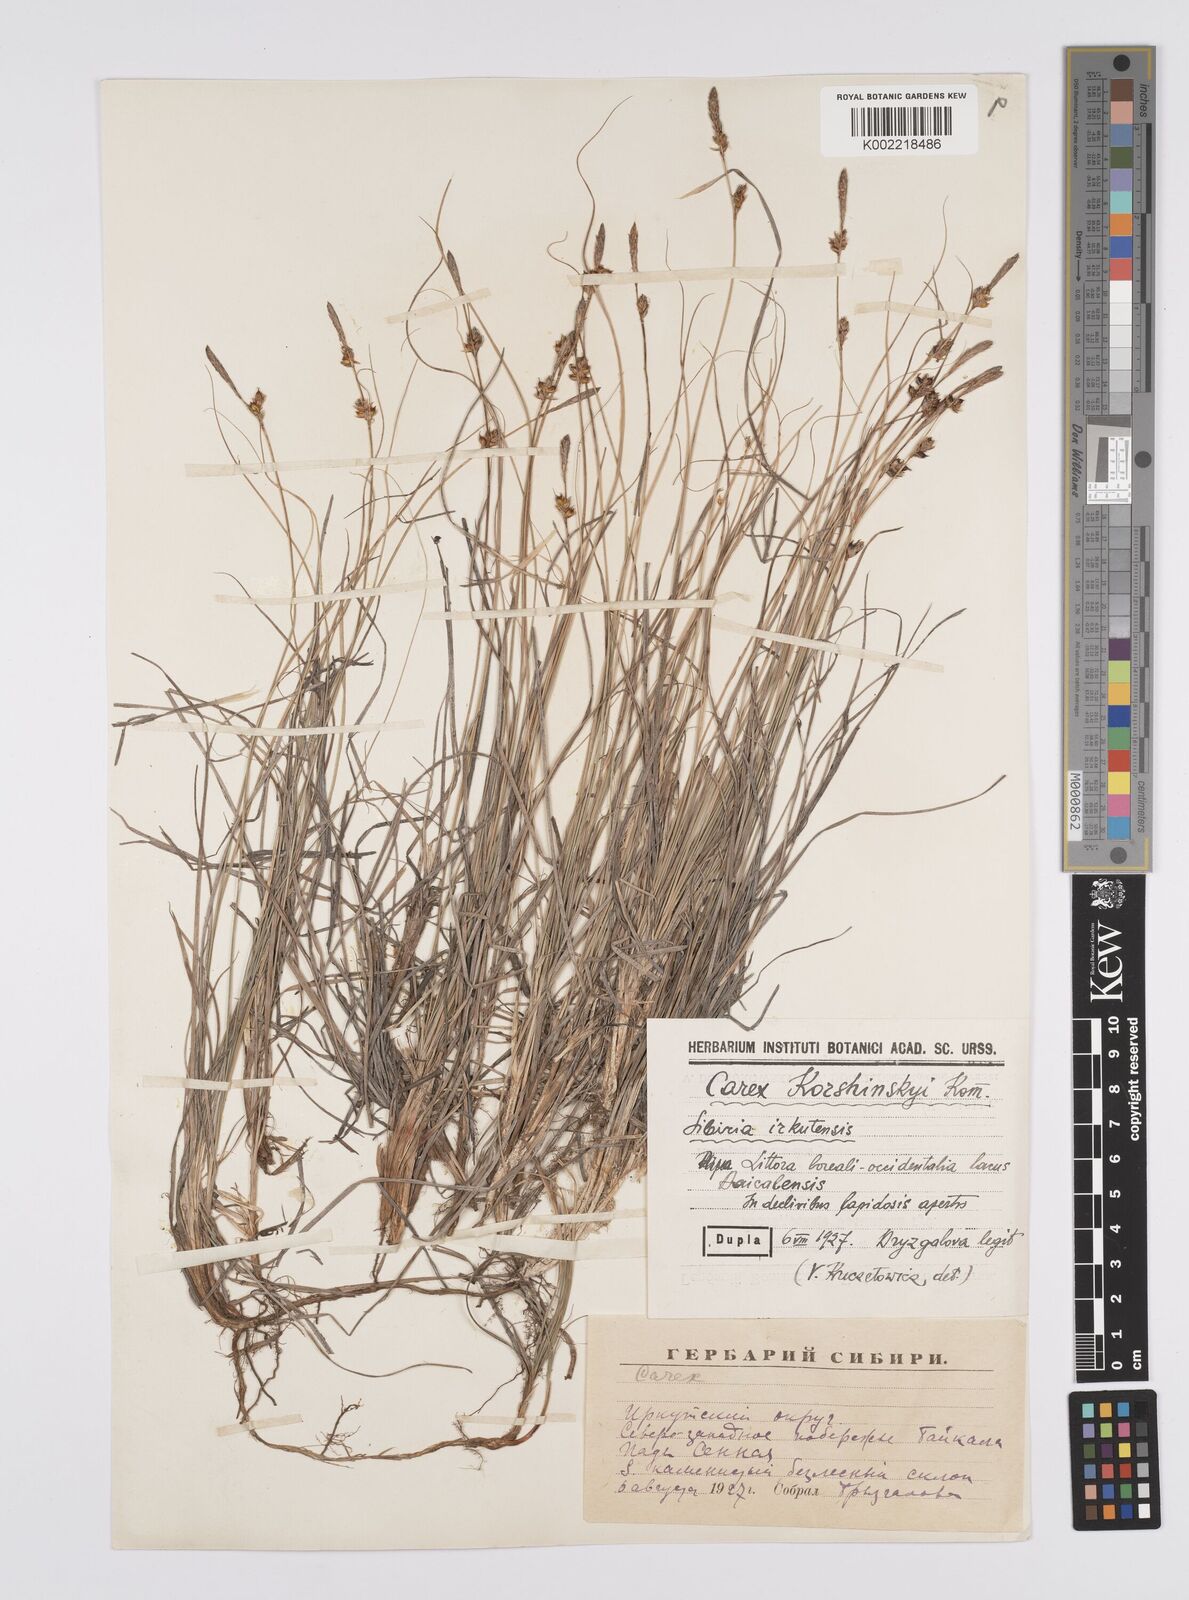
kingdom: Plantae
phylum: Tracheophyta
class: Liliopsida
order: Poales
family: Cyperaceae
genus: Carex
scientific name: Carex supina
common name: Lying-back sedge
